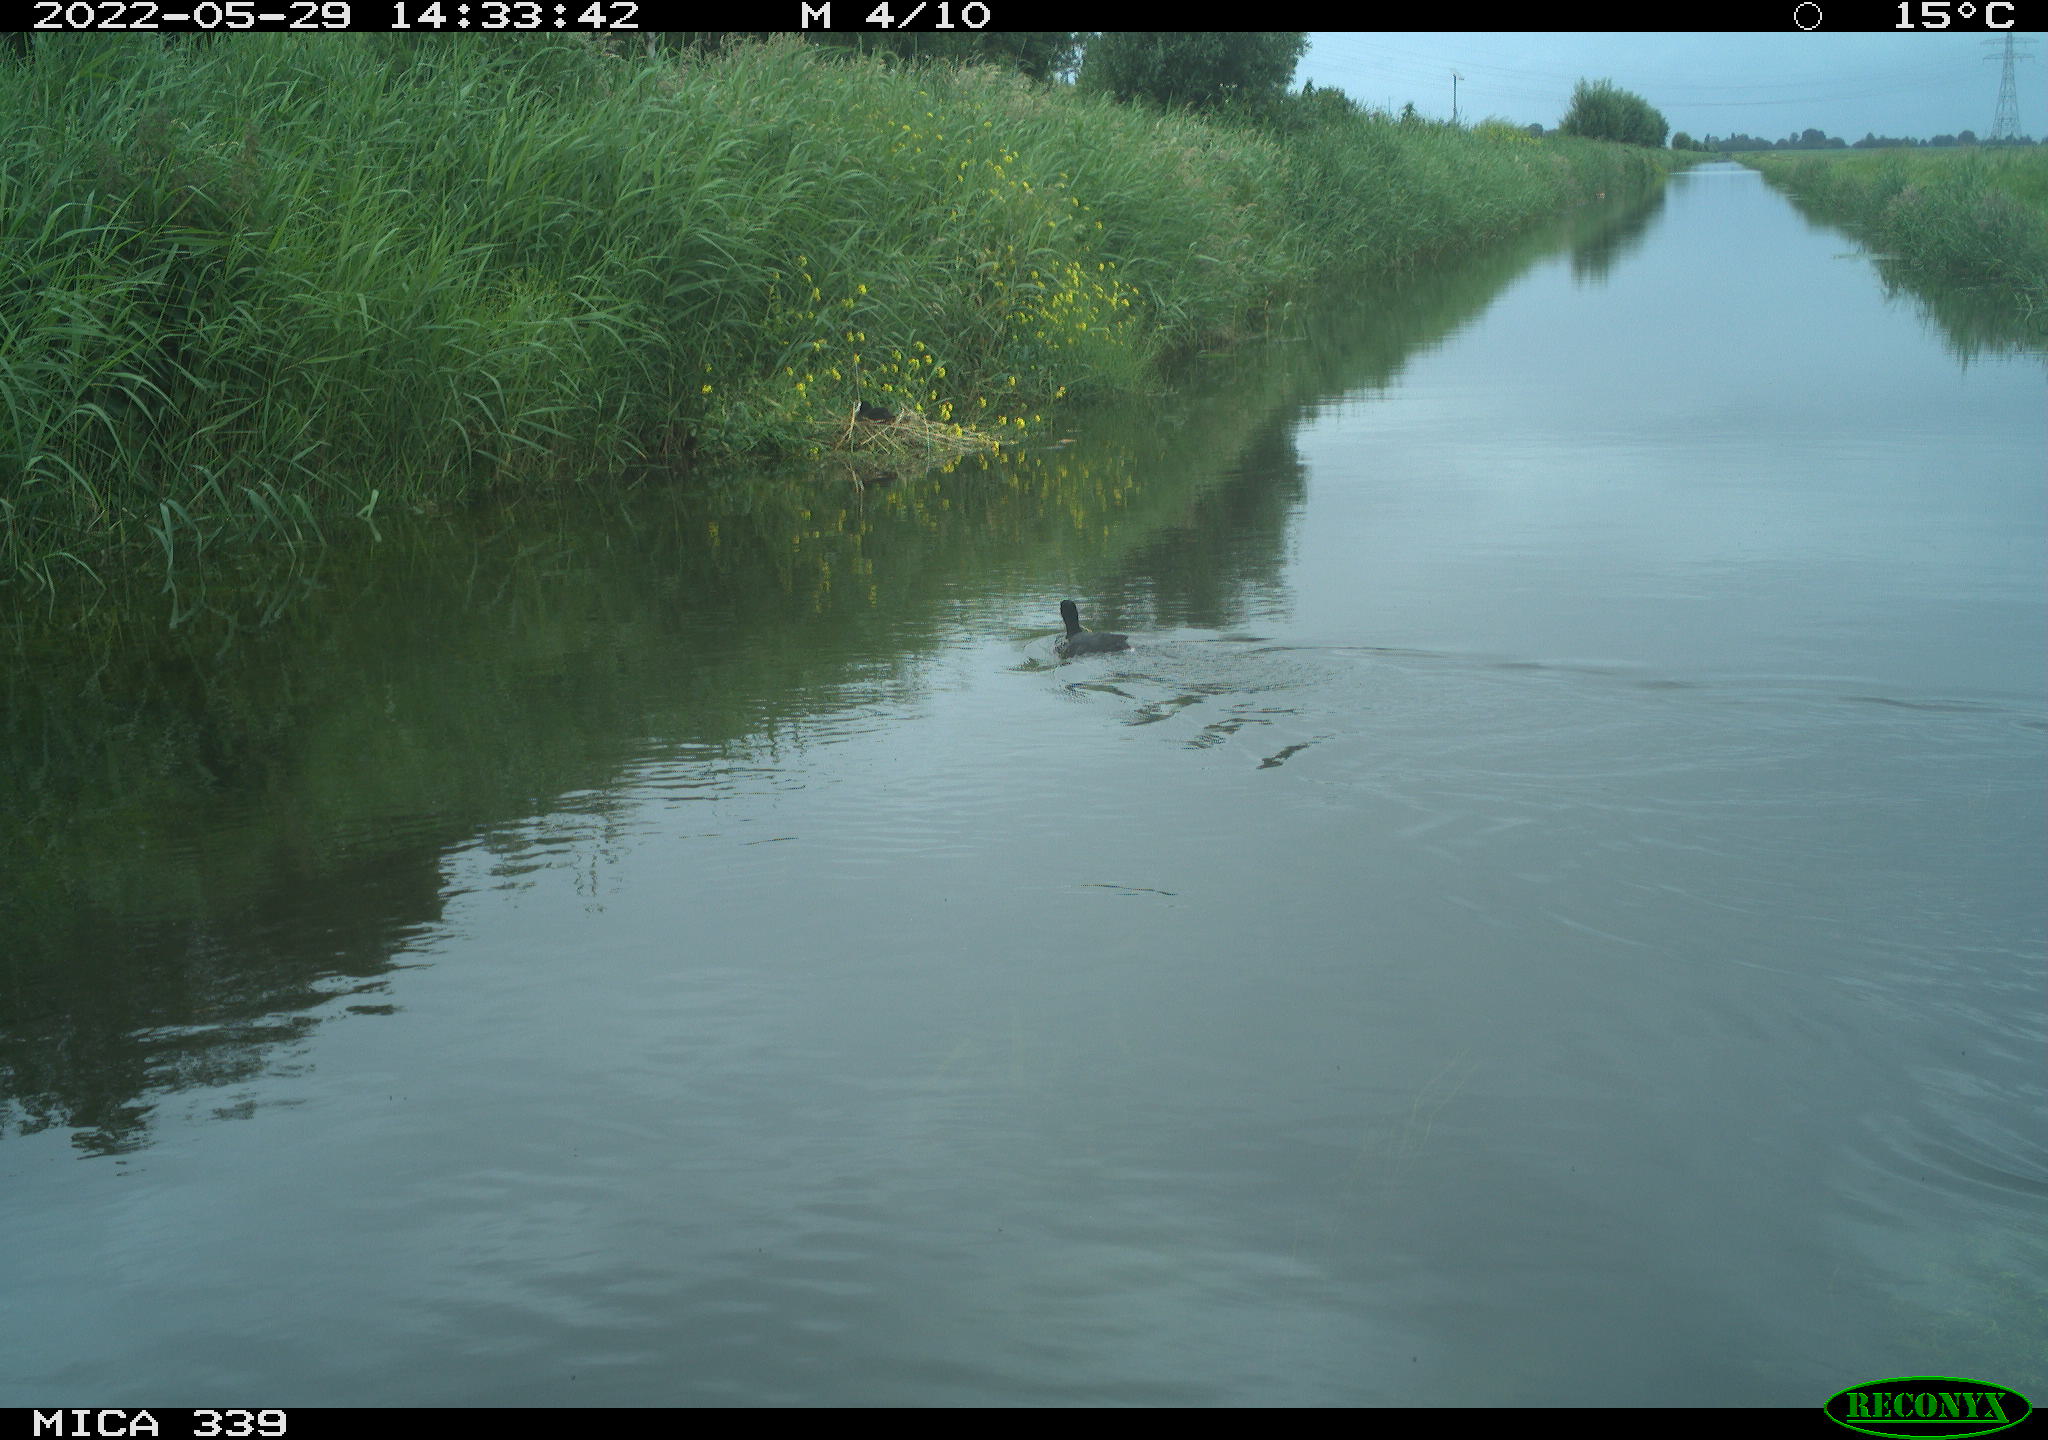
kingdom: Animalia
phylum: Chordata
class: Aves
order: Gruiformes
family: Rallidae
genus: Fulica
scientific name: Fulica atra
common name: Eurasian coot
